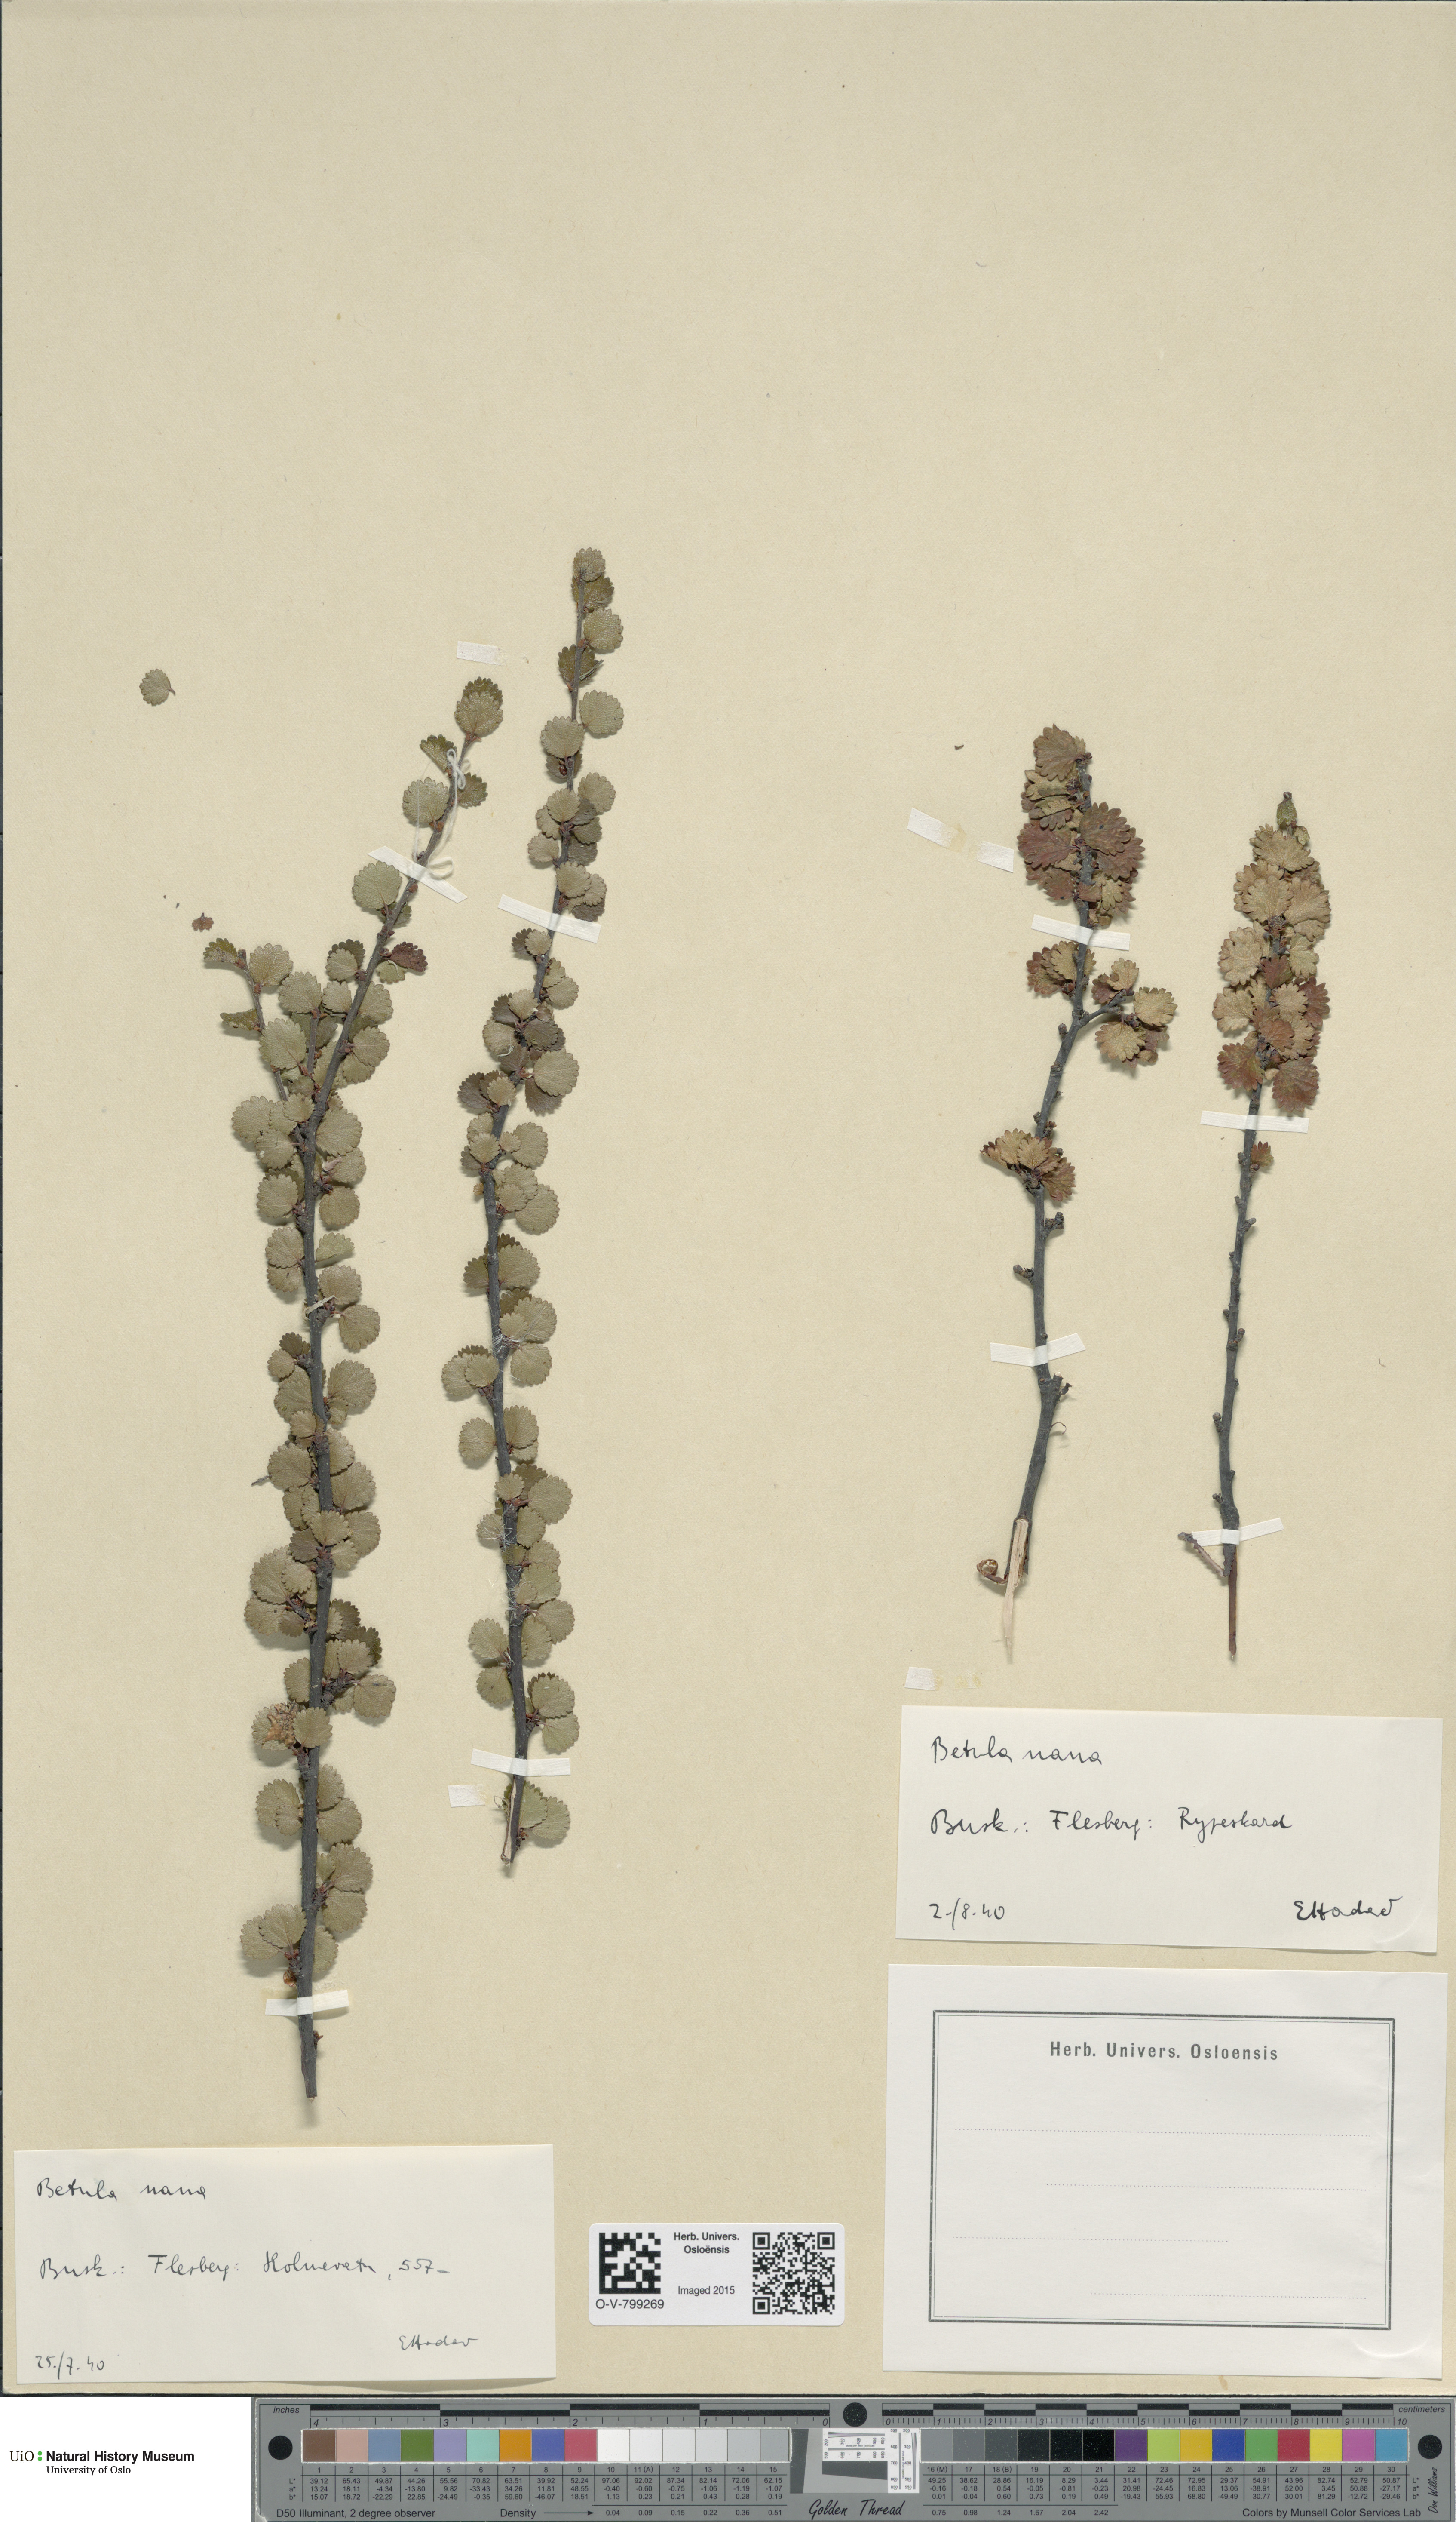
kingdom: Plantae
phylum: Tracheophyta
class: Magnoliopsida
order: Fagales
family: Betulaceae
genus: Betula
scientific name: Betula nana
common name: Arctic dwarf birch
